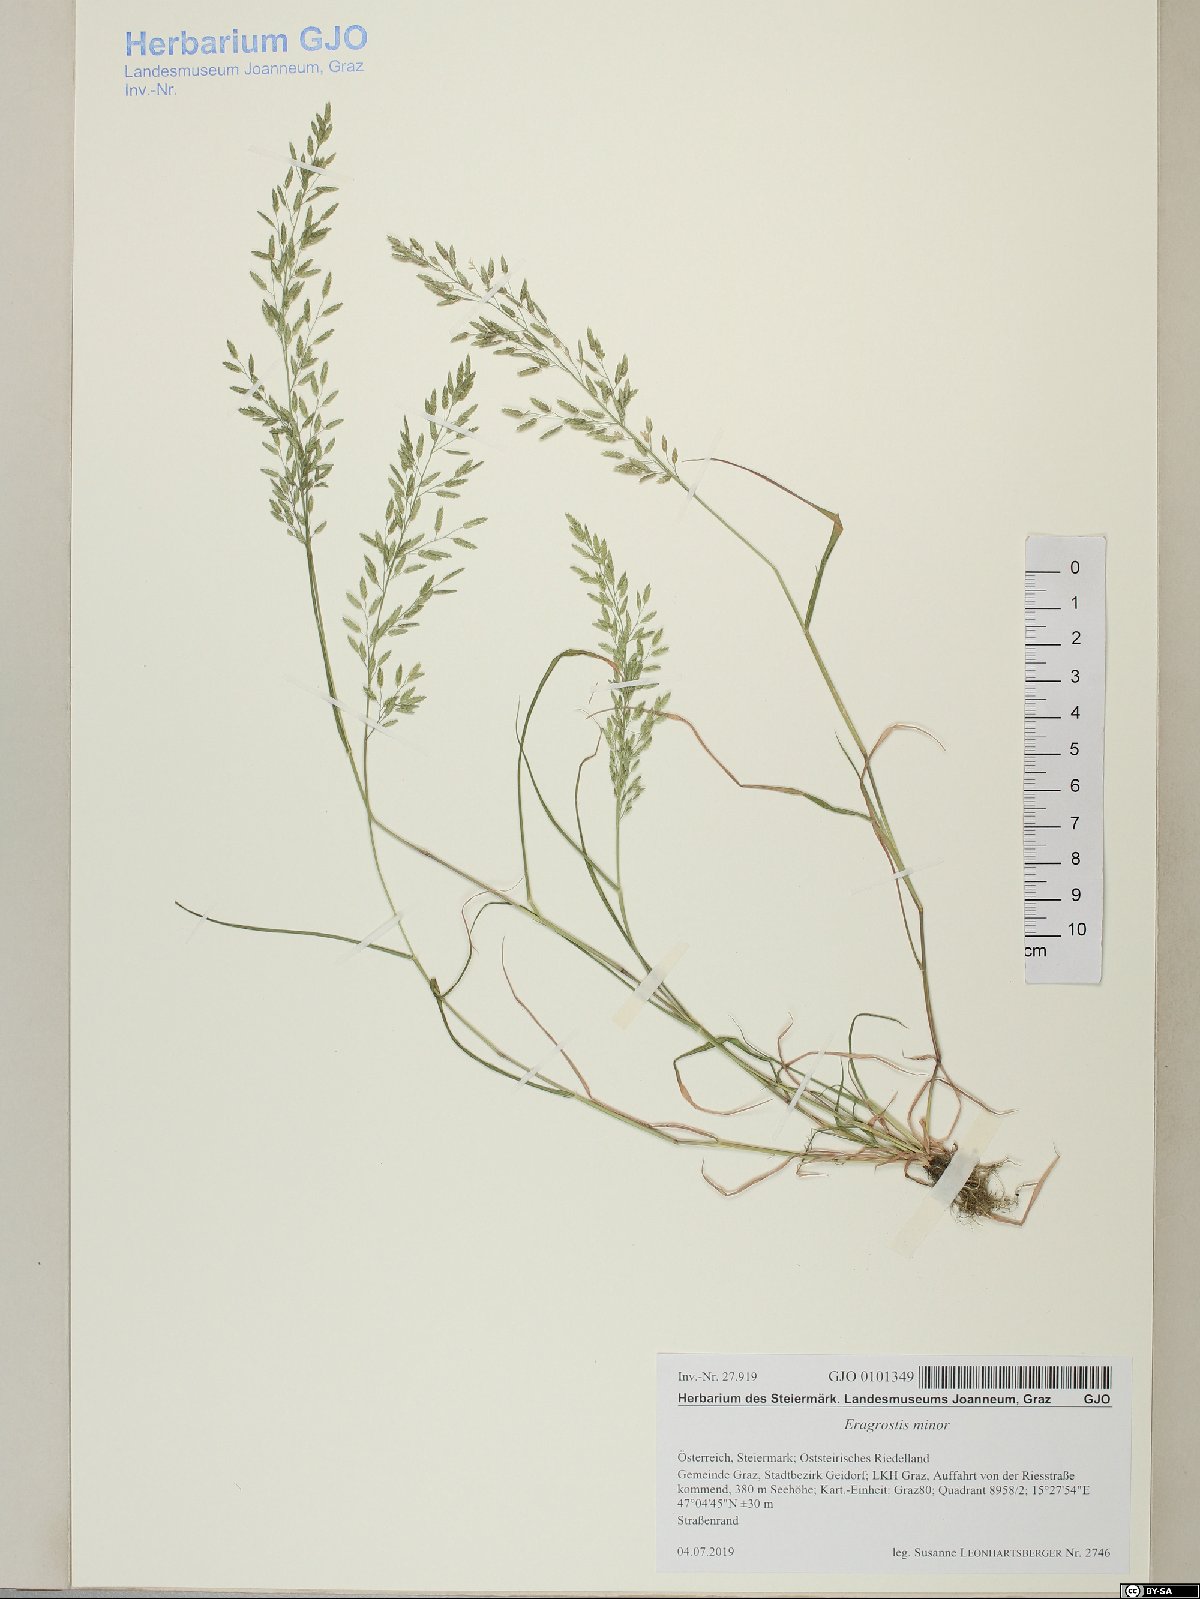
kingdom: Plantae
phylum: Tracheophyta
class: Liliopsida
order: Poales
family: Poaceae
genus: Eragrostis
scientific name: Eragrostis minor
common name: Small love-grass
